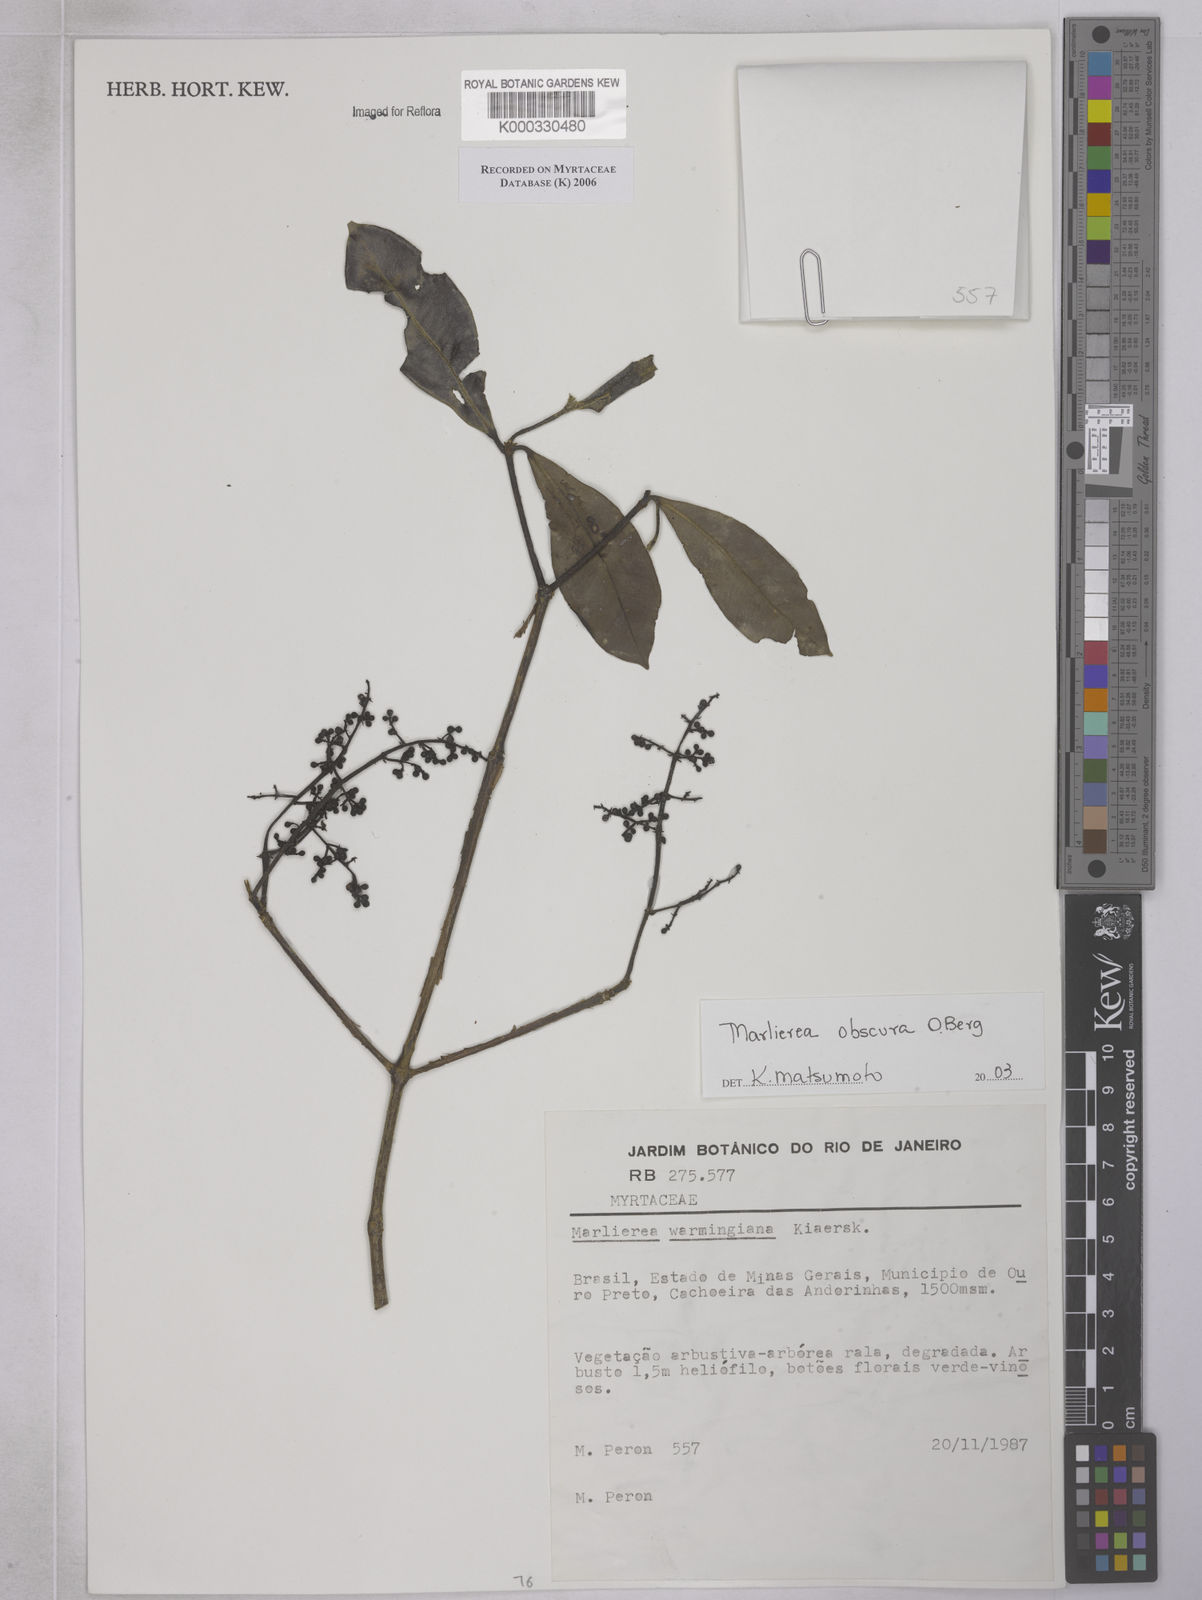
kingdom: Plantae
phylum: Tracheophyta
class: Magnoliopsida
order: Myrtales
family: Myrtaceae
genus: Myrcia
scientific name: Myrcia neoobscura
